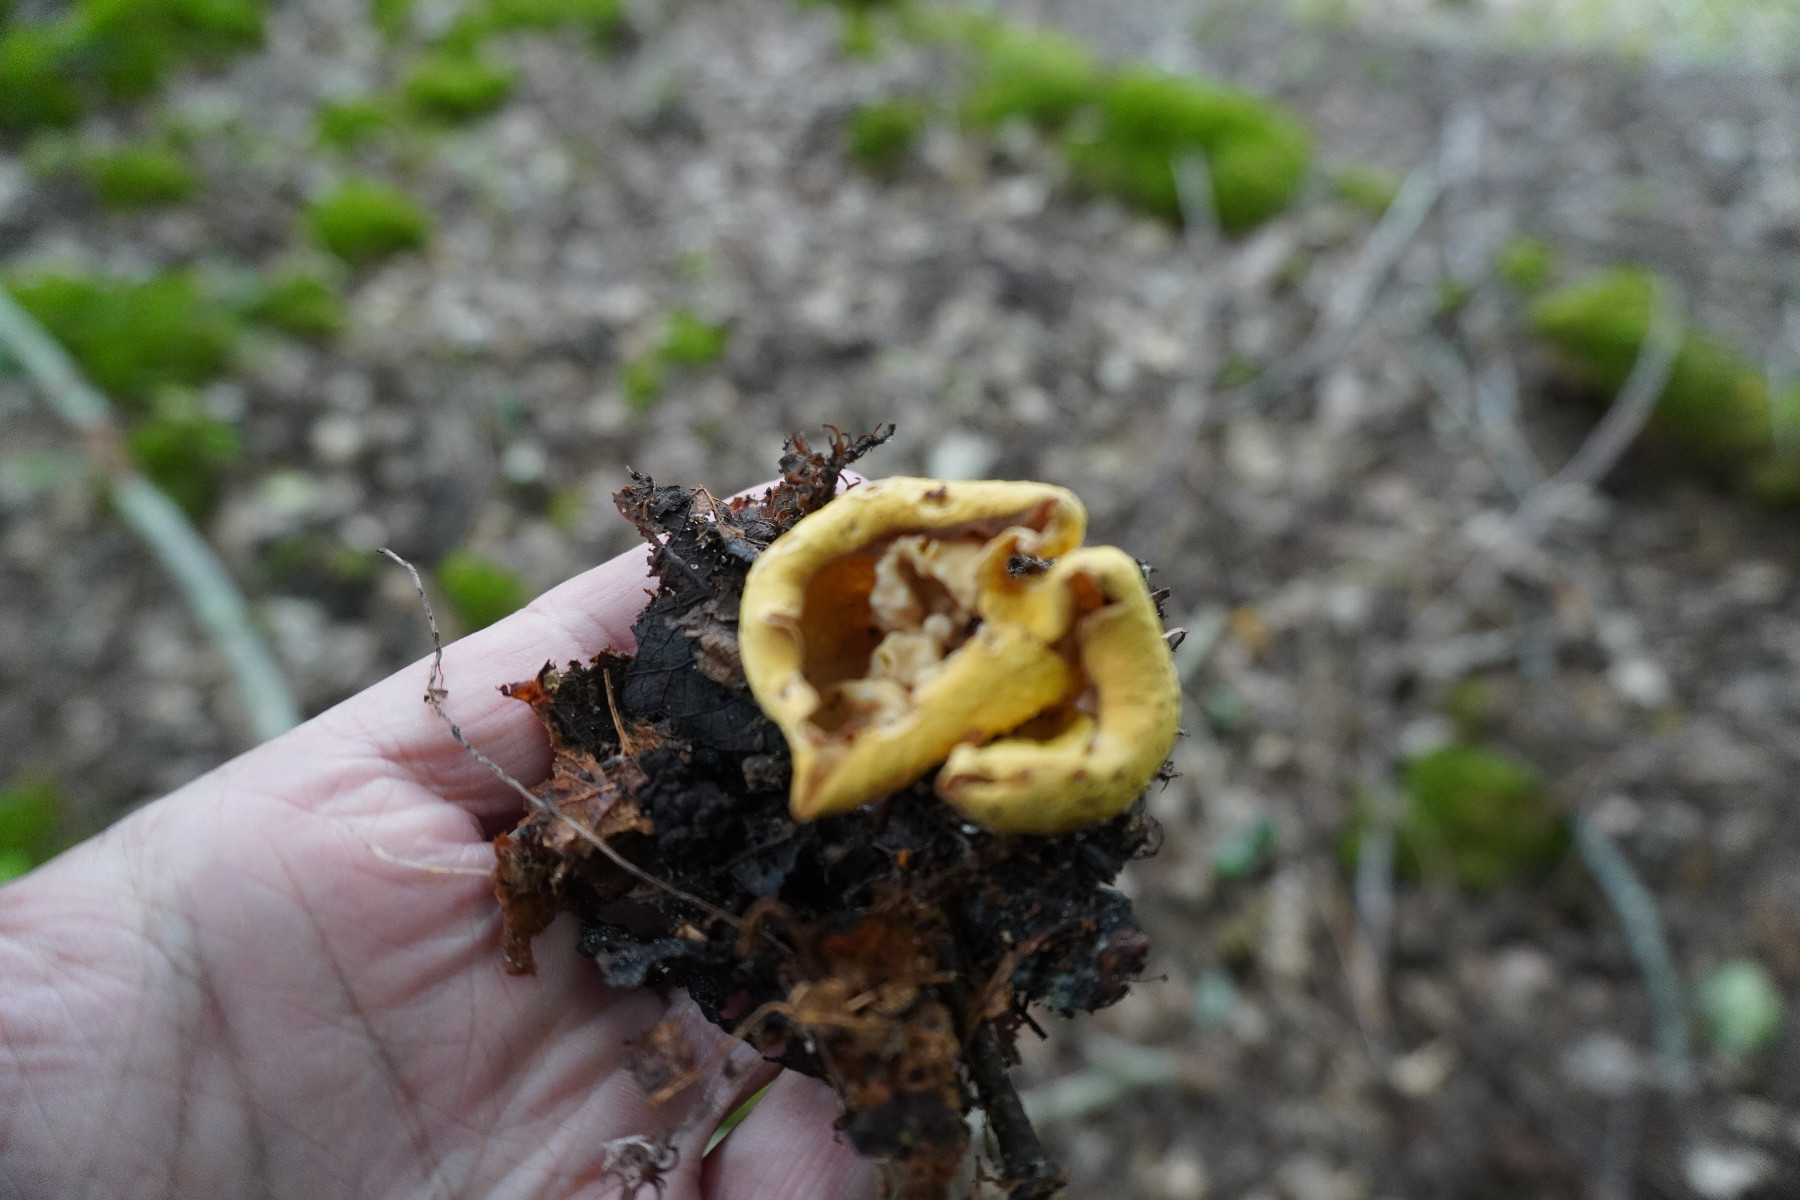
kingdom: Fungi
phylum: Ascomycota
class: Pezizomycetes
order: Pezizales
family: Otideaceae
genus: Otidea
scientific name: Otidea
